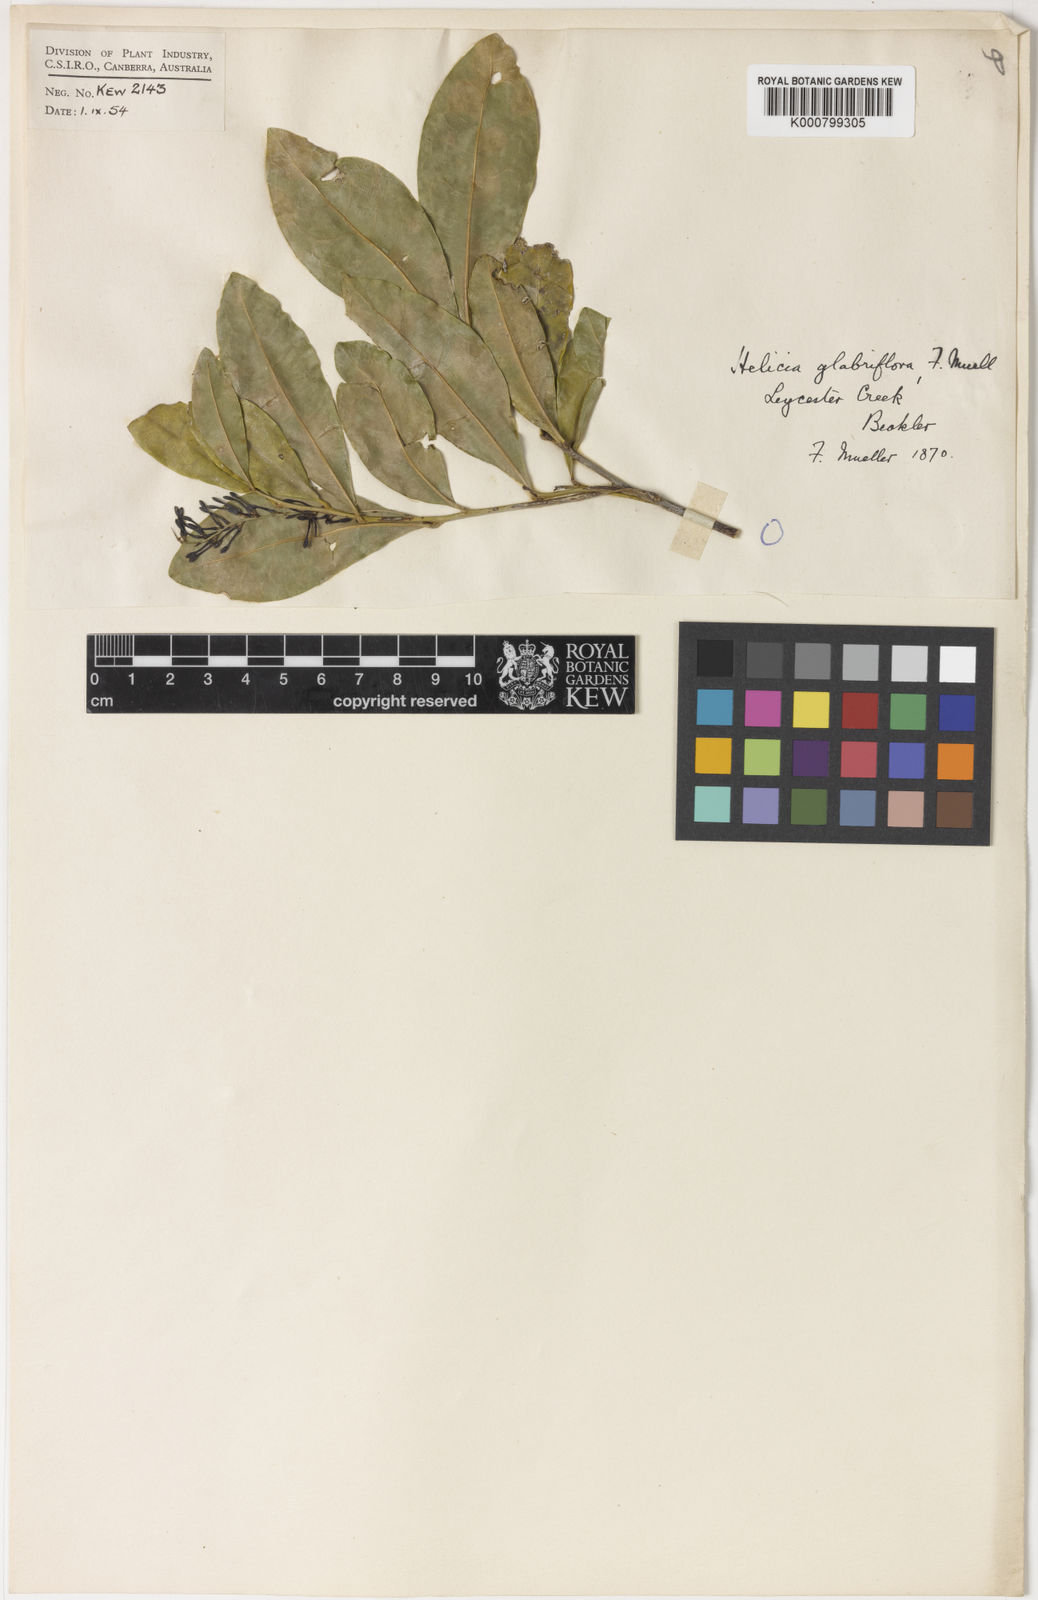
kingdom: Plantae
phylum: Tracheophyta
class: Magnoliopsida
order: Proteales
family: Proteaceae
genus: Helicia
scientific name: Helicia glabriflora
